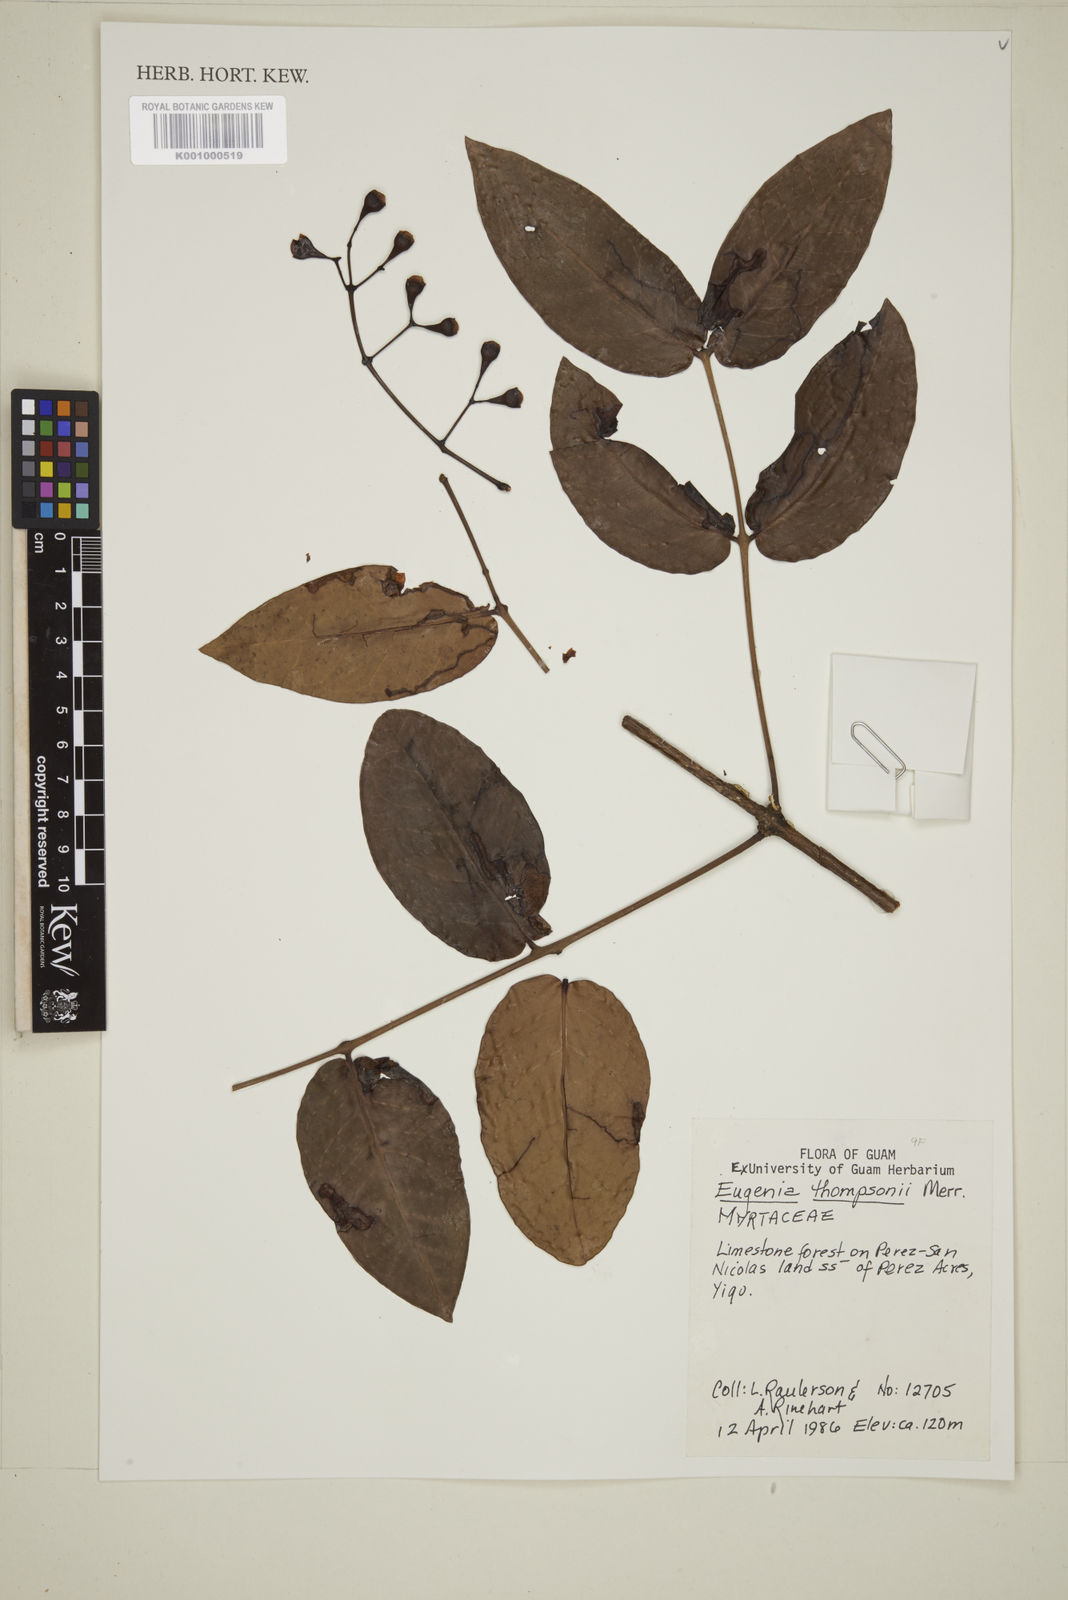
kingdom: Plantae
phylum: Tracheophyta
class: Magnoliopsida
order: Myrtales
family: Myrtaceae
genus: Syzygium
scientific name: Syzygium thompsonii
